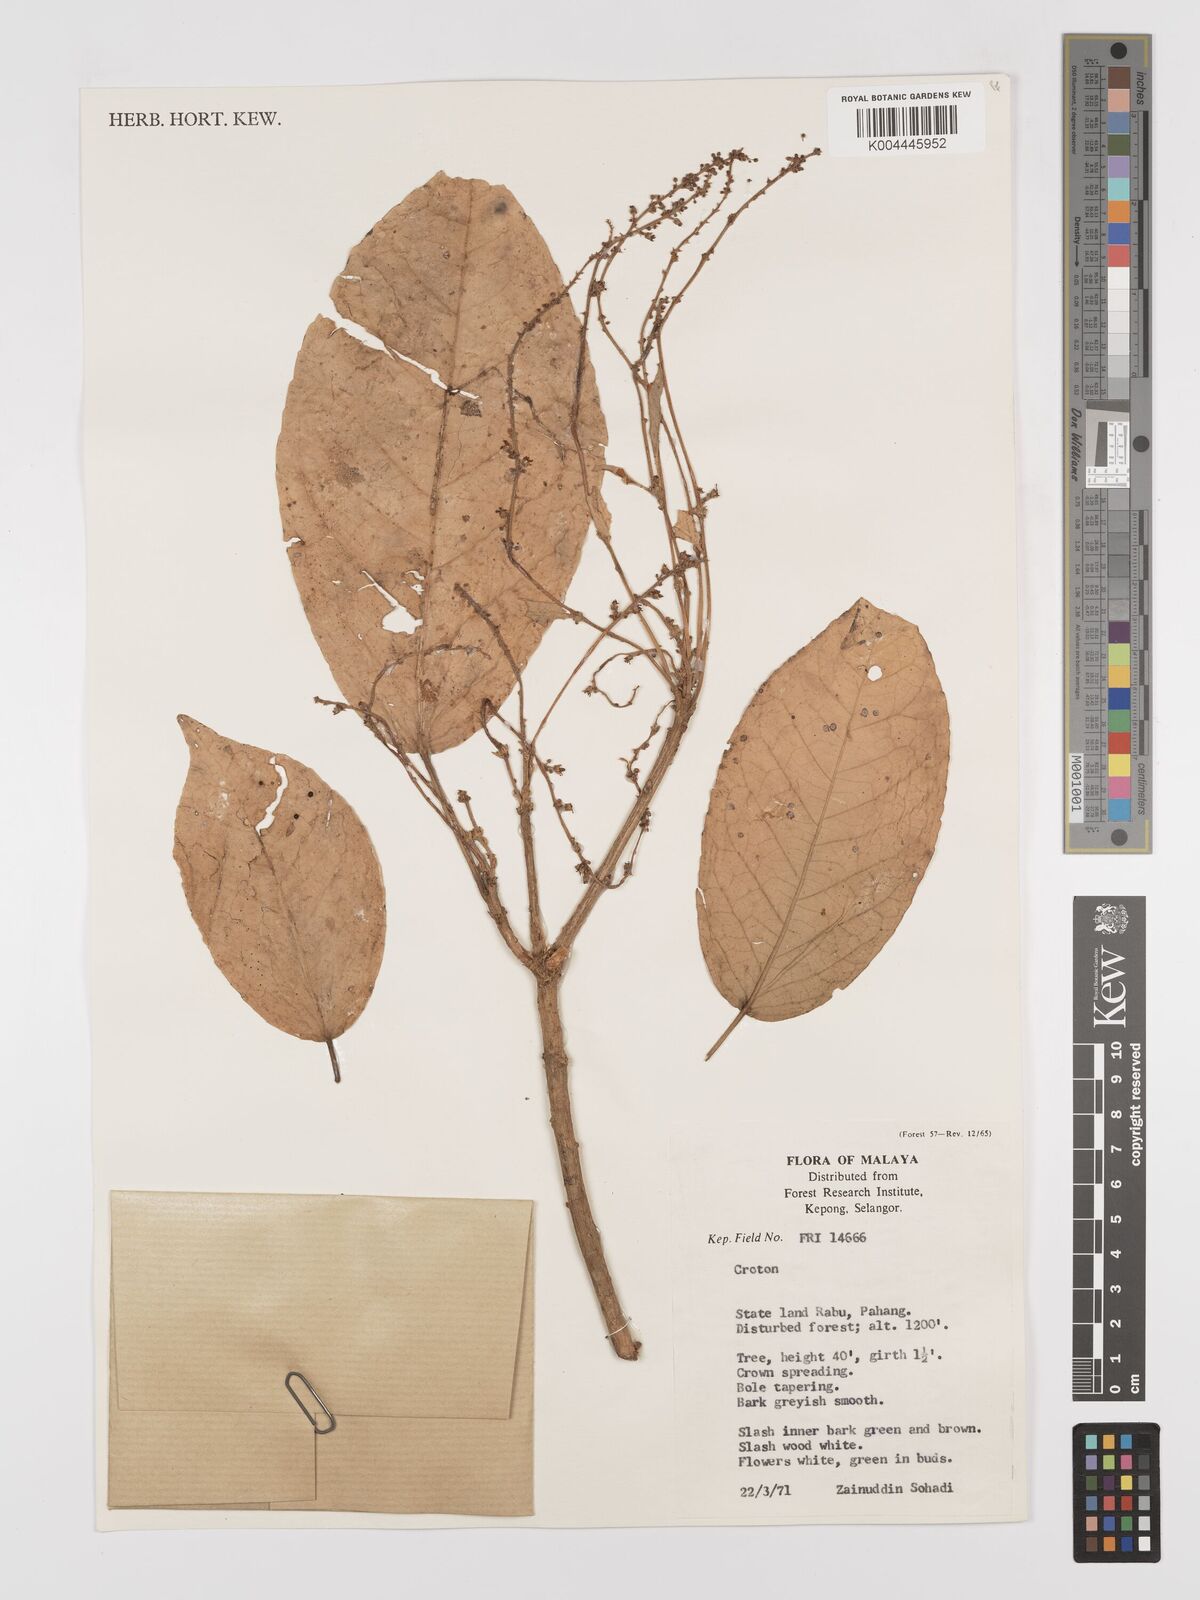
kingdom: Plantae
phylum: Tracheophyta
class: Magnoliopsida
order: Malpighiales
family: Euphorbiaceae
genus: Croton
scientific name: Croton griffithii
